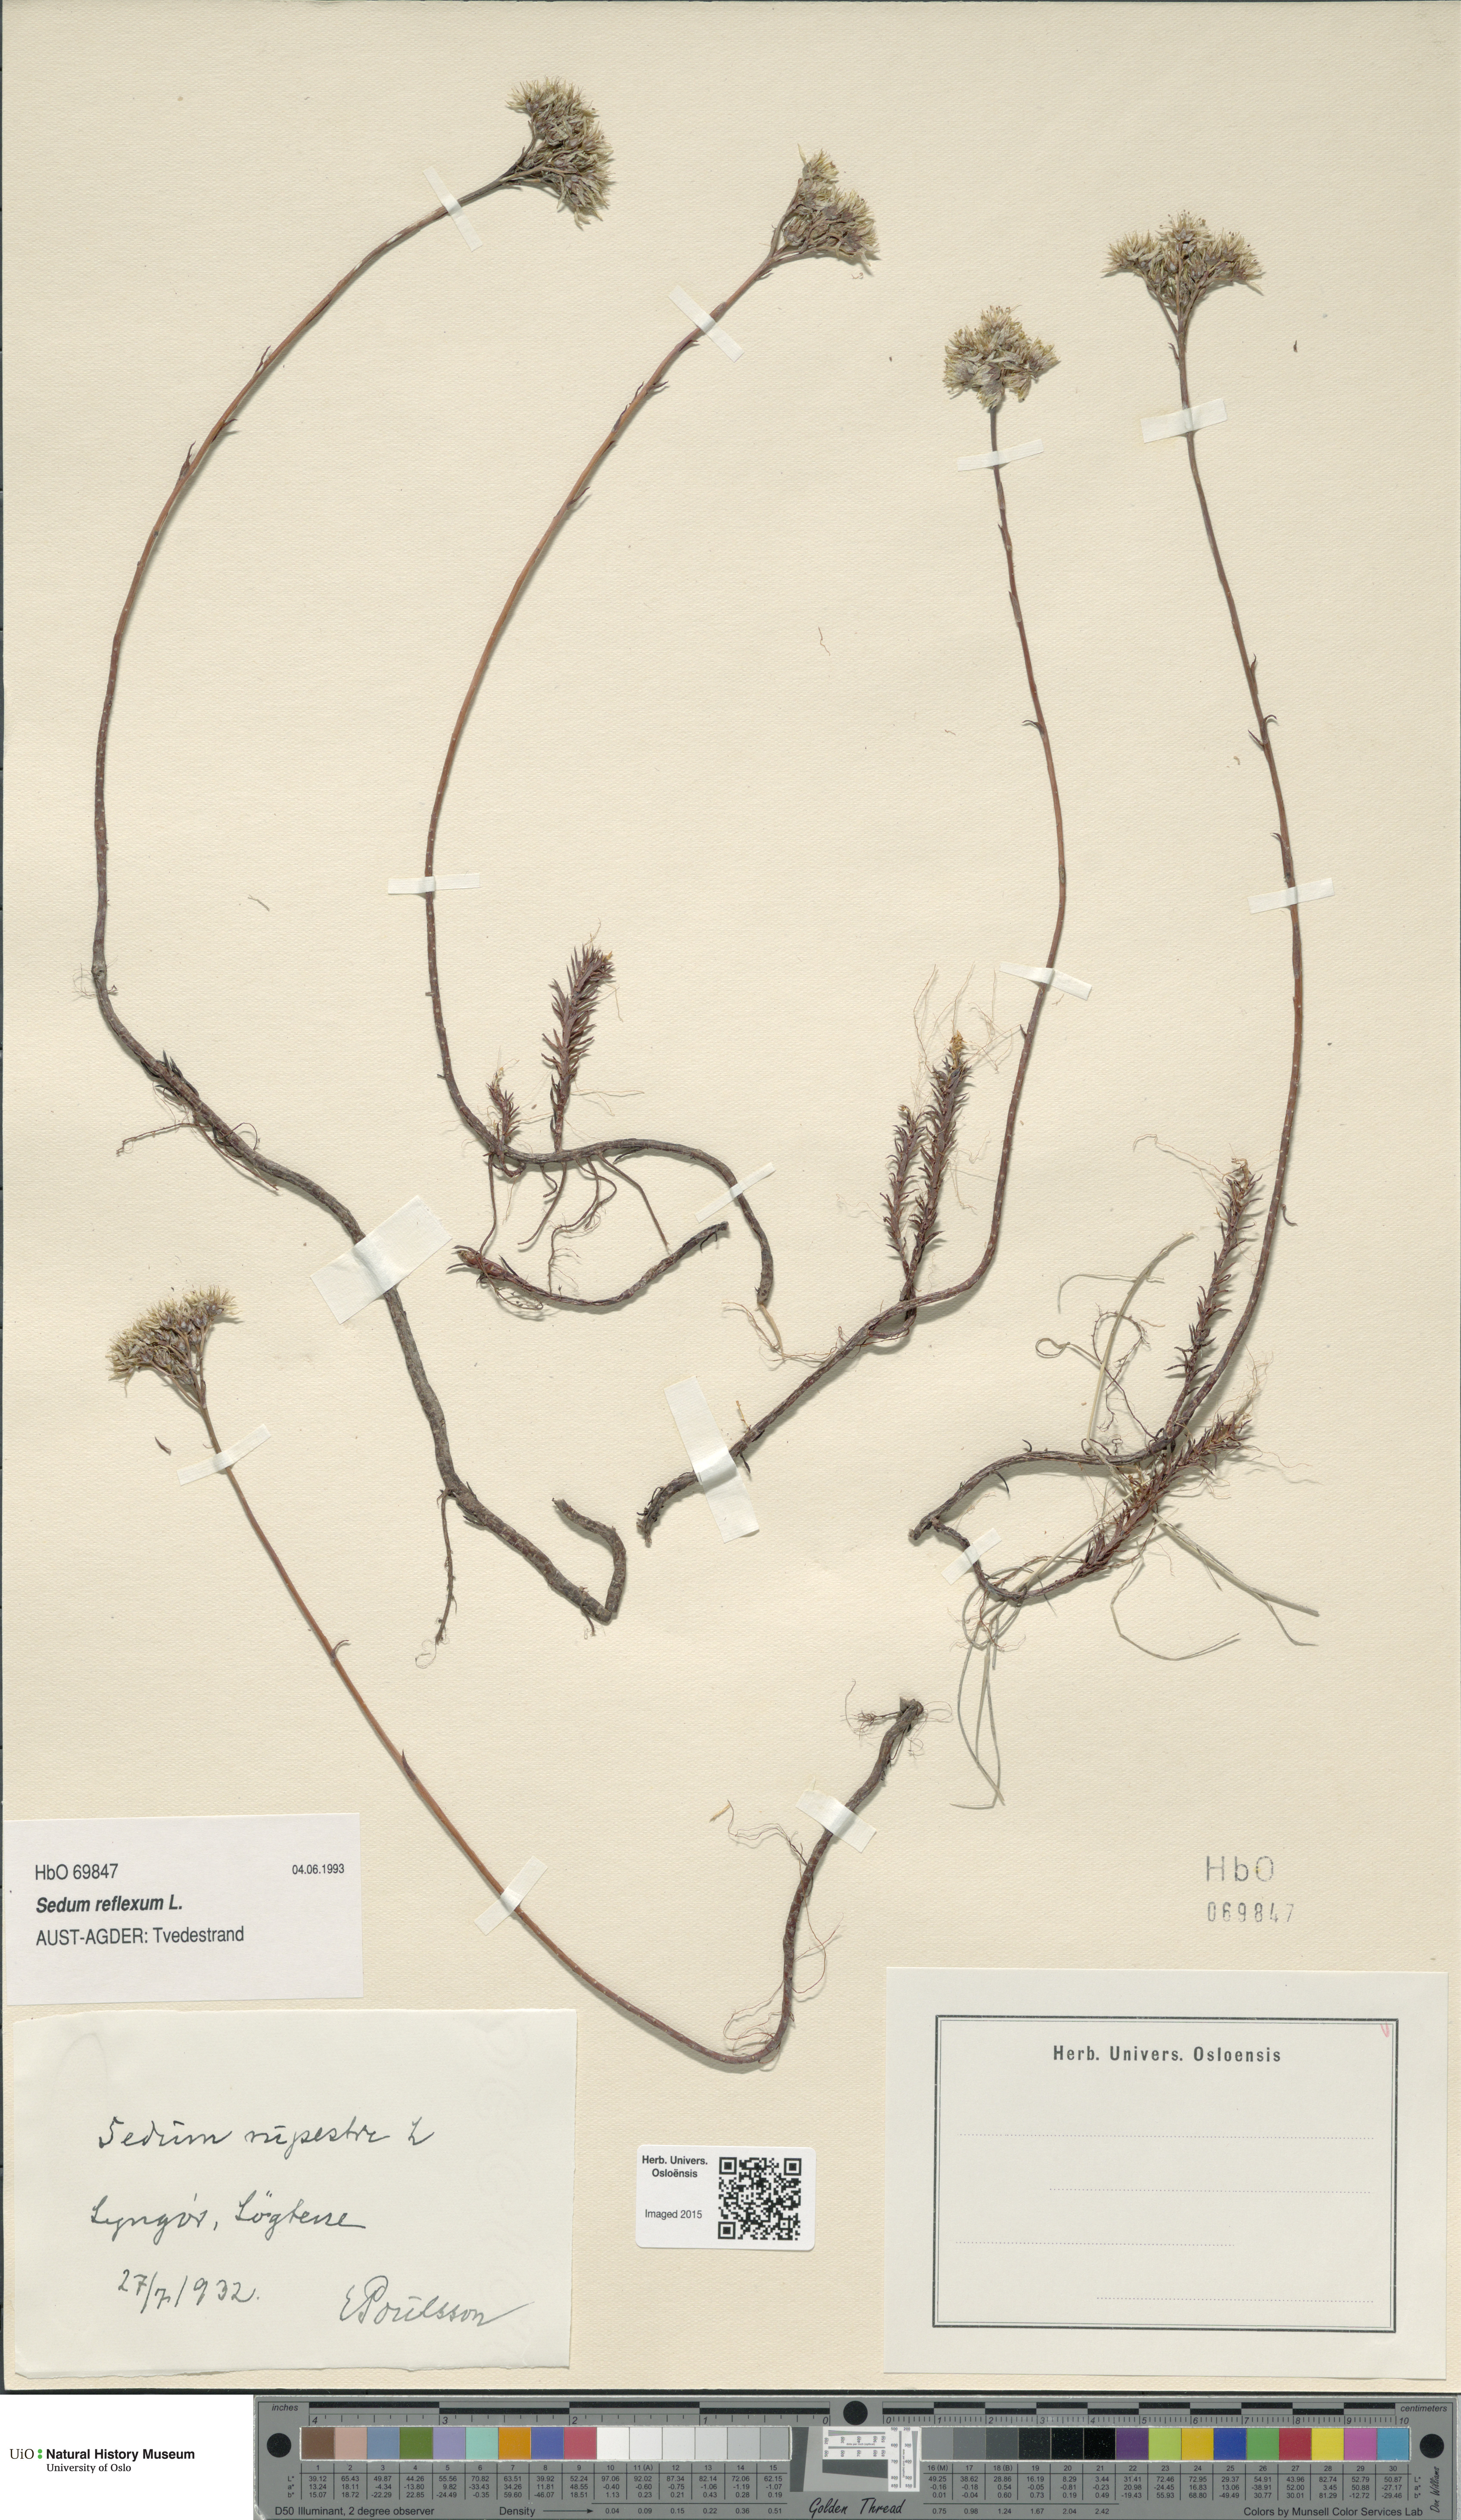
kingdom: Plantae
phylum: Tracheophyta
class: Magnoliopsida
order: Saxifragales
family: Crassulaceae
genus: Petrosedum
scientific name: Petrosedum rupestre
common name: Jenny's stonecrop
